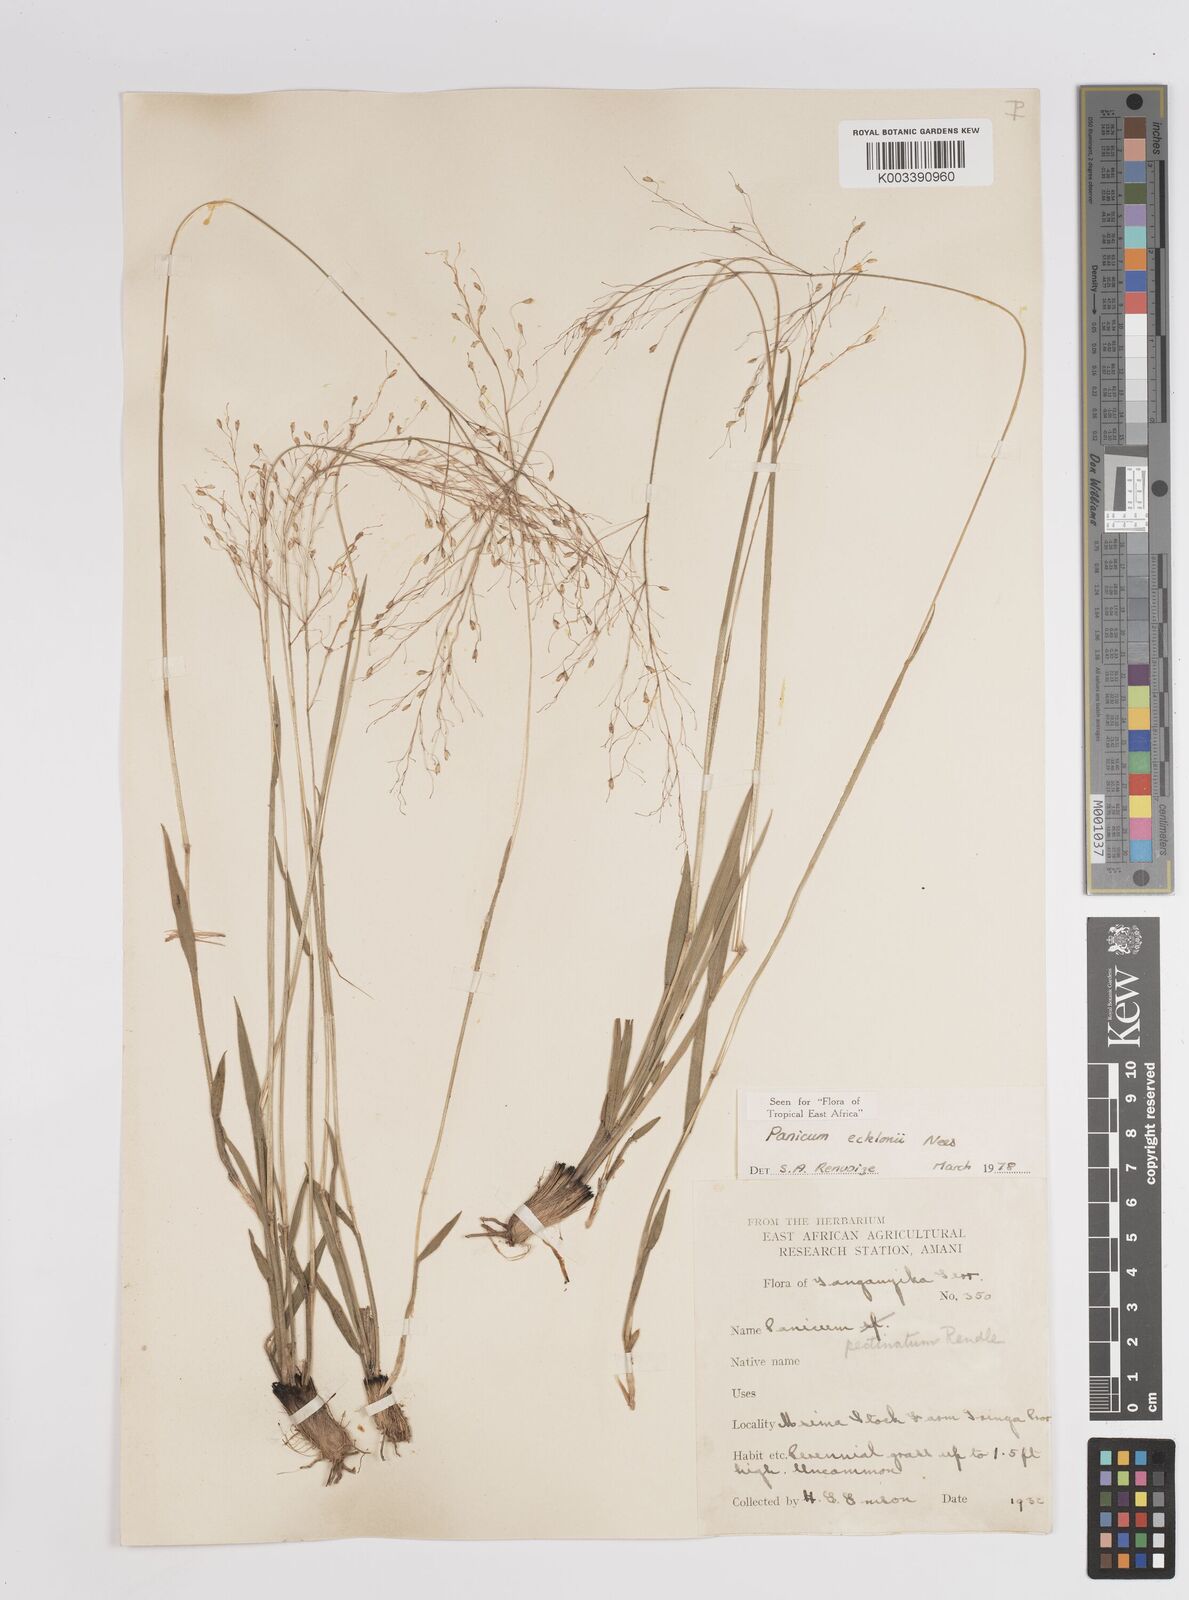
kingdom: Plantae
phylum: Tracheophyta
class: Liliopsida
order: Poales
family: Poaceae
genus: Adenochloa
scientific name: Adenochloa ecklonii
